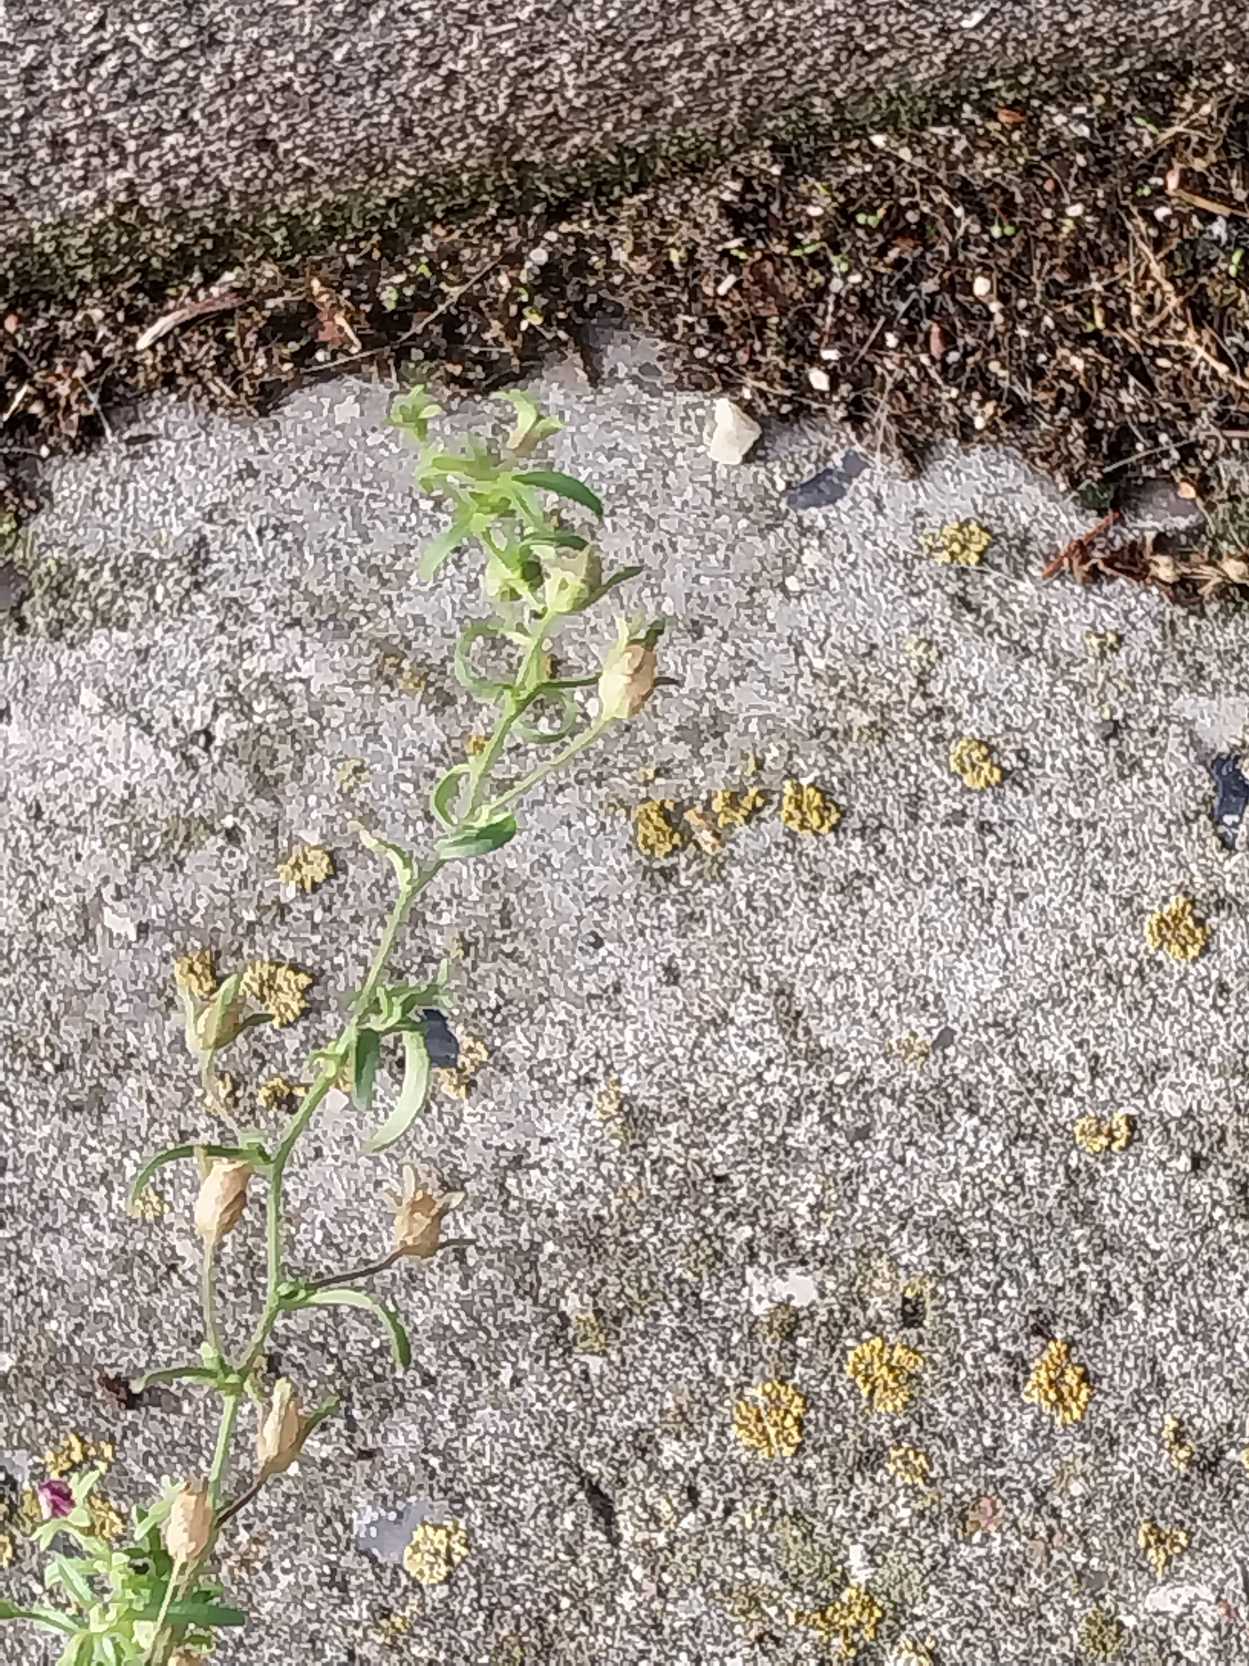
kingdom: Plantae
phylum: Tracheophyta
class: Magnoliopsida
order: Lamiales
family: Plantaginaceae
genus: Chaenorhinum
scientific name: Chaenorhinum minus
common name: Liden torskemund
